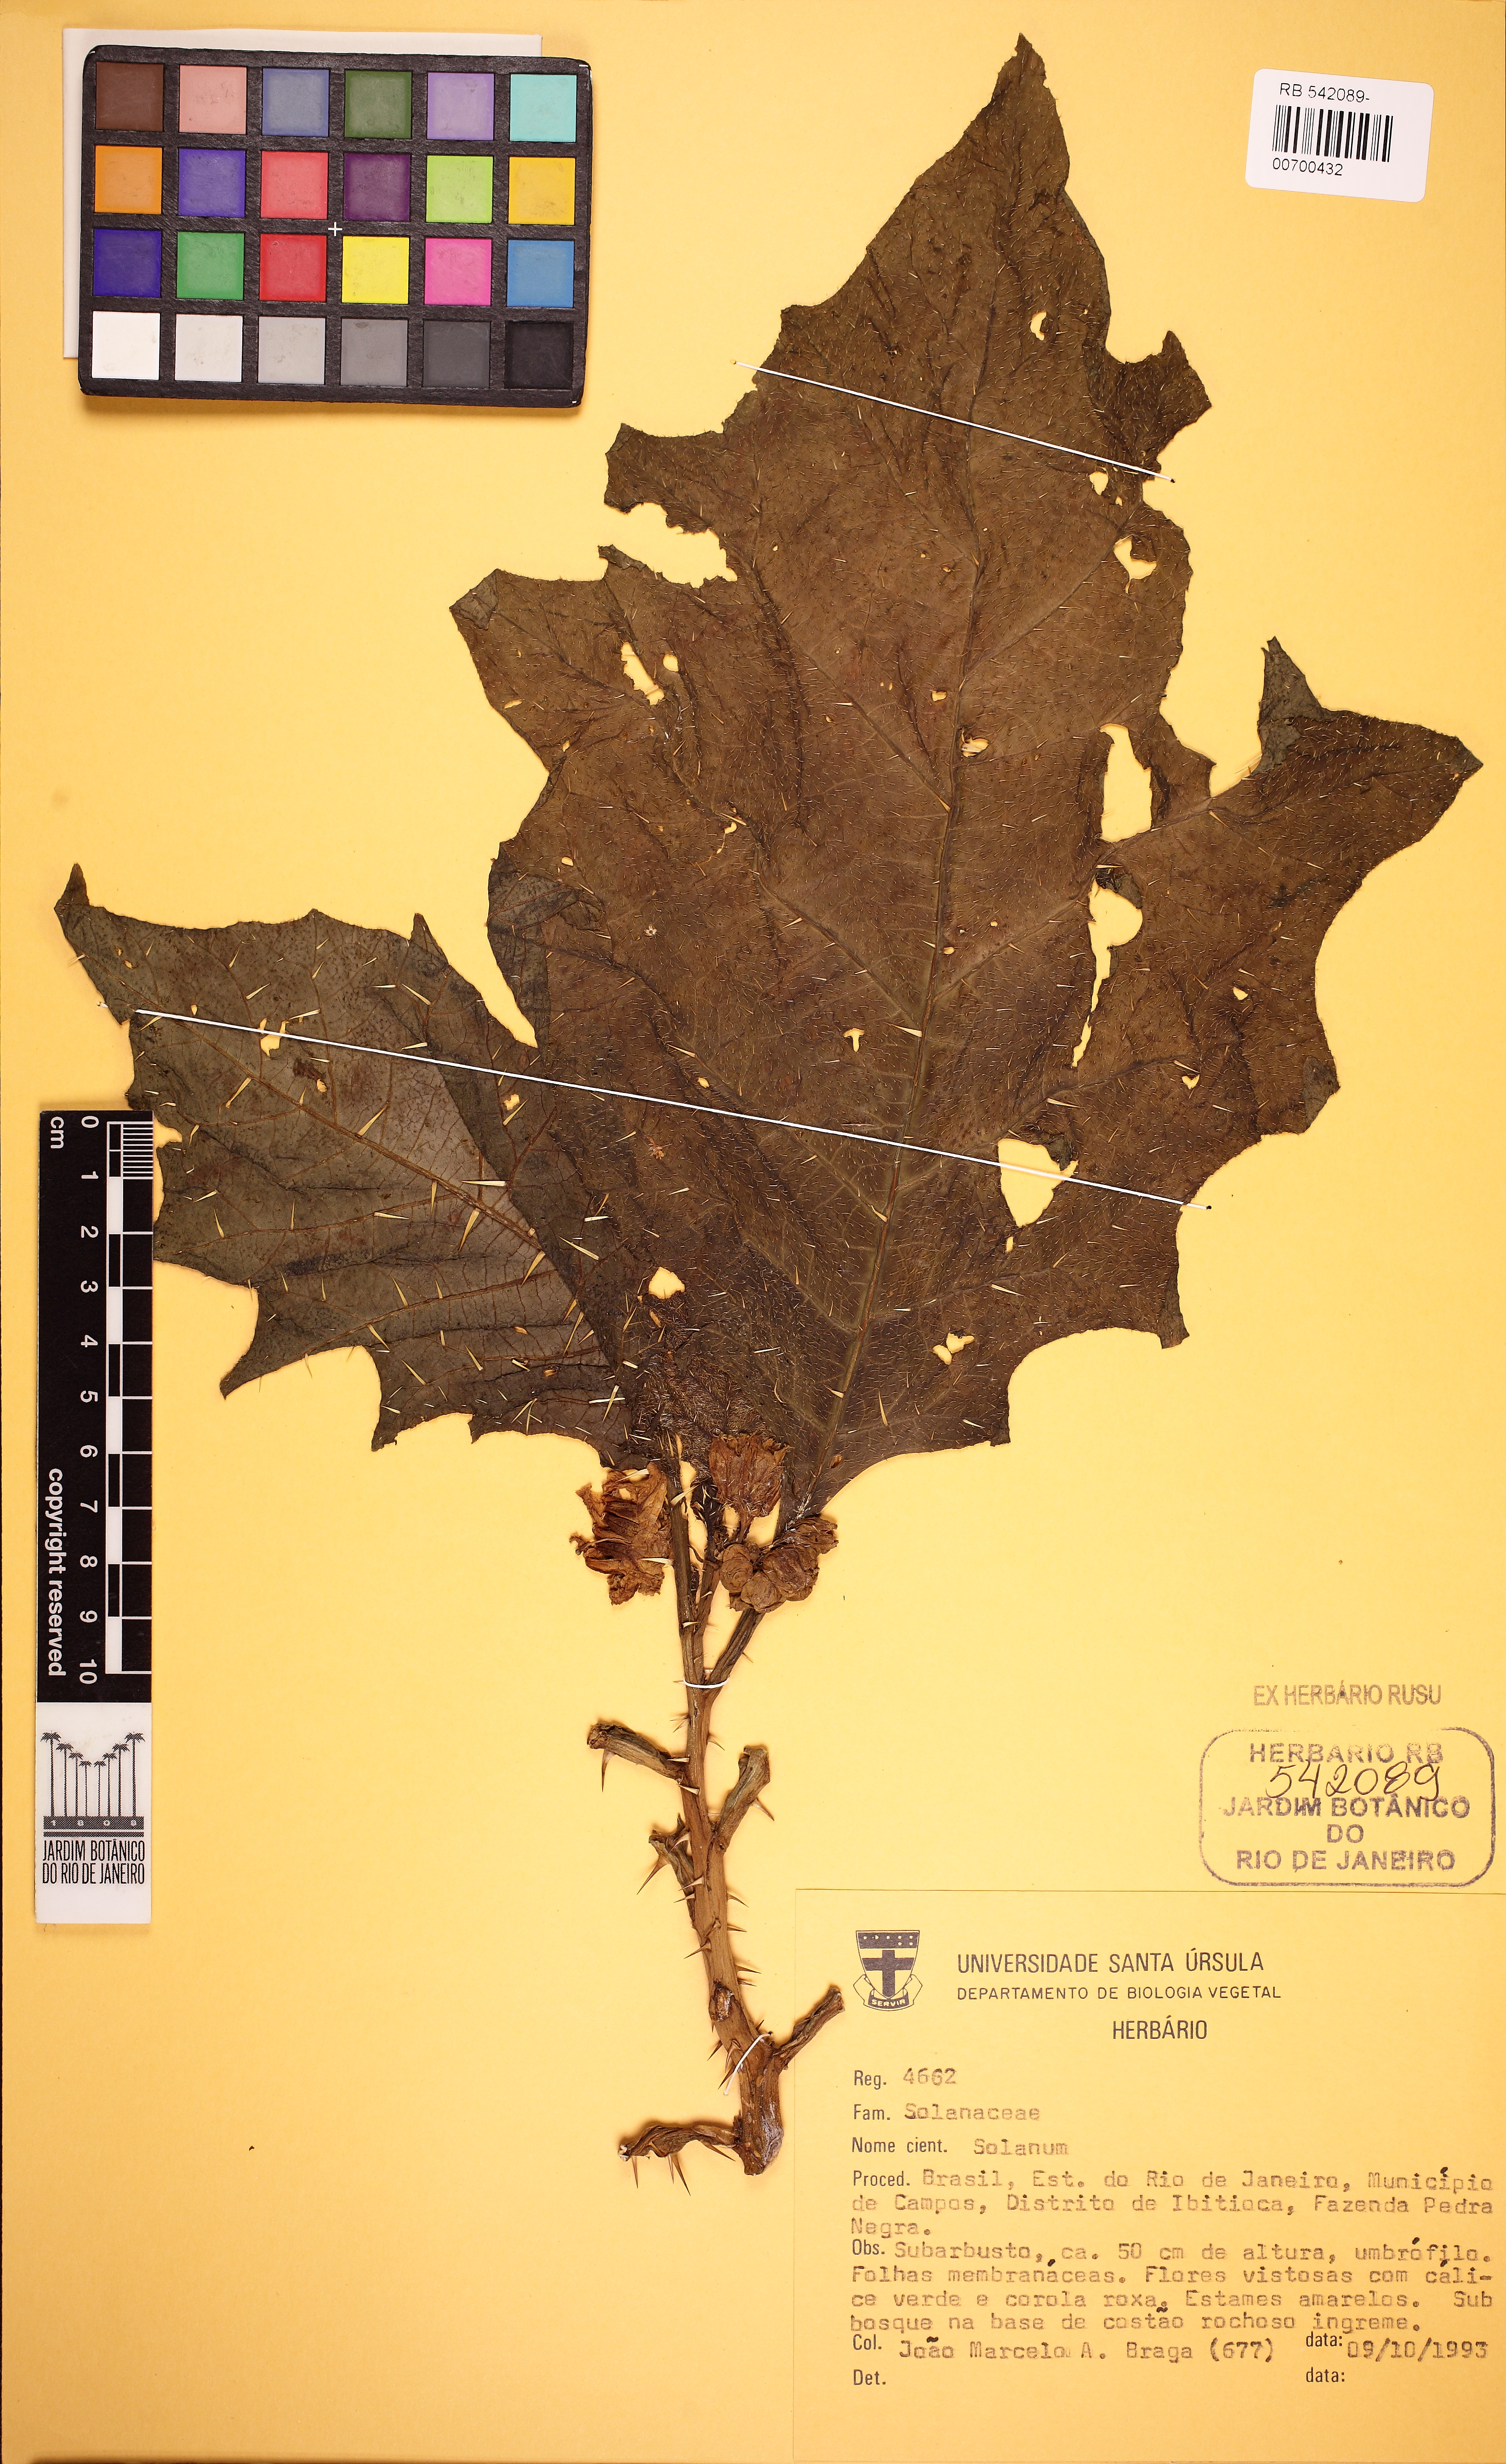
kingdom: Plantae
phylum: Tracheophyta
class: Magnoliopsida
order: Solanales
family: Solanaceae
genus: Solanum
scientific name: Solanum hexandrum
